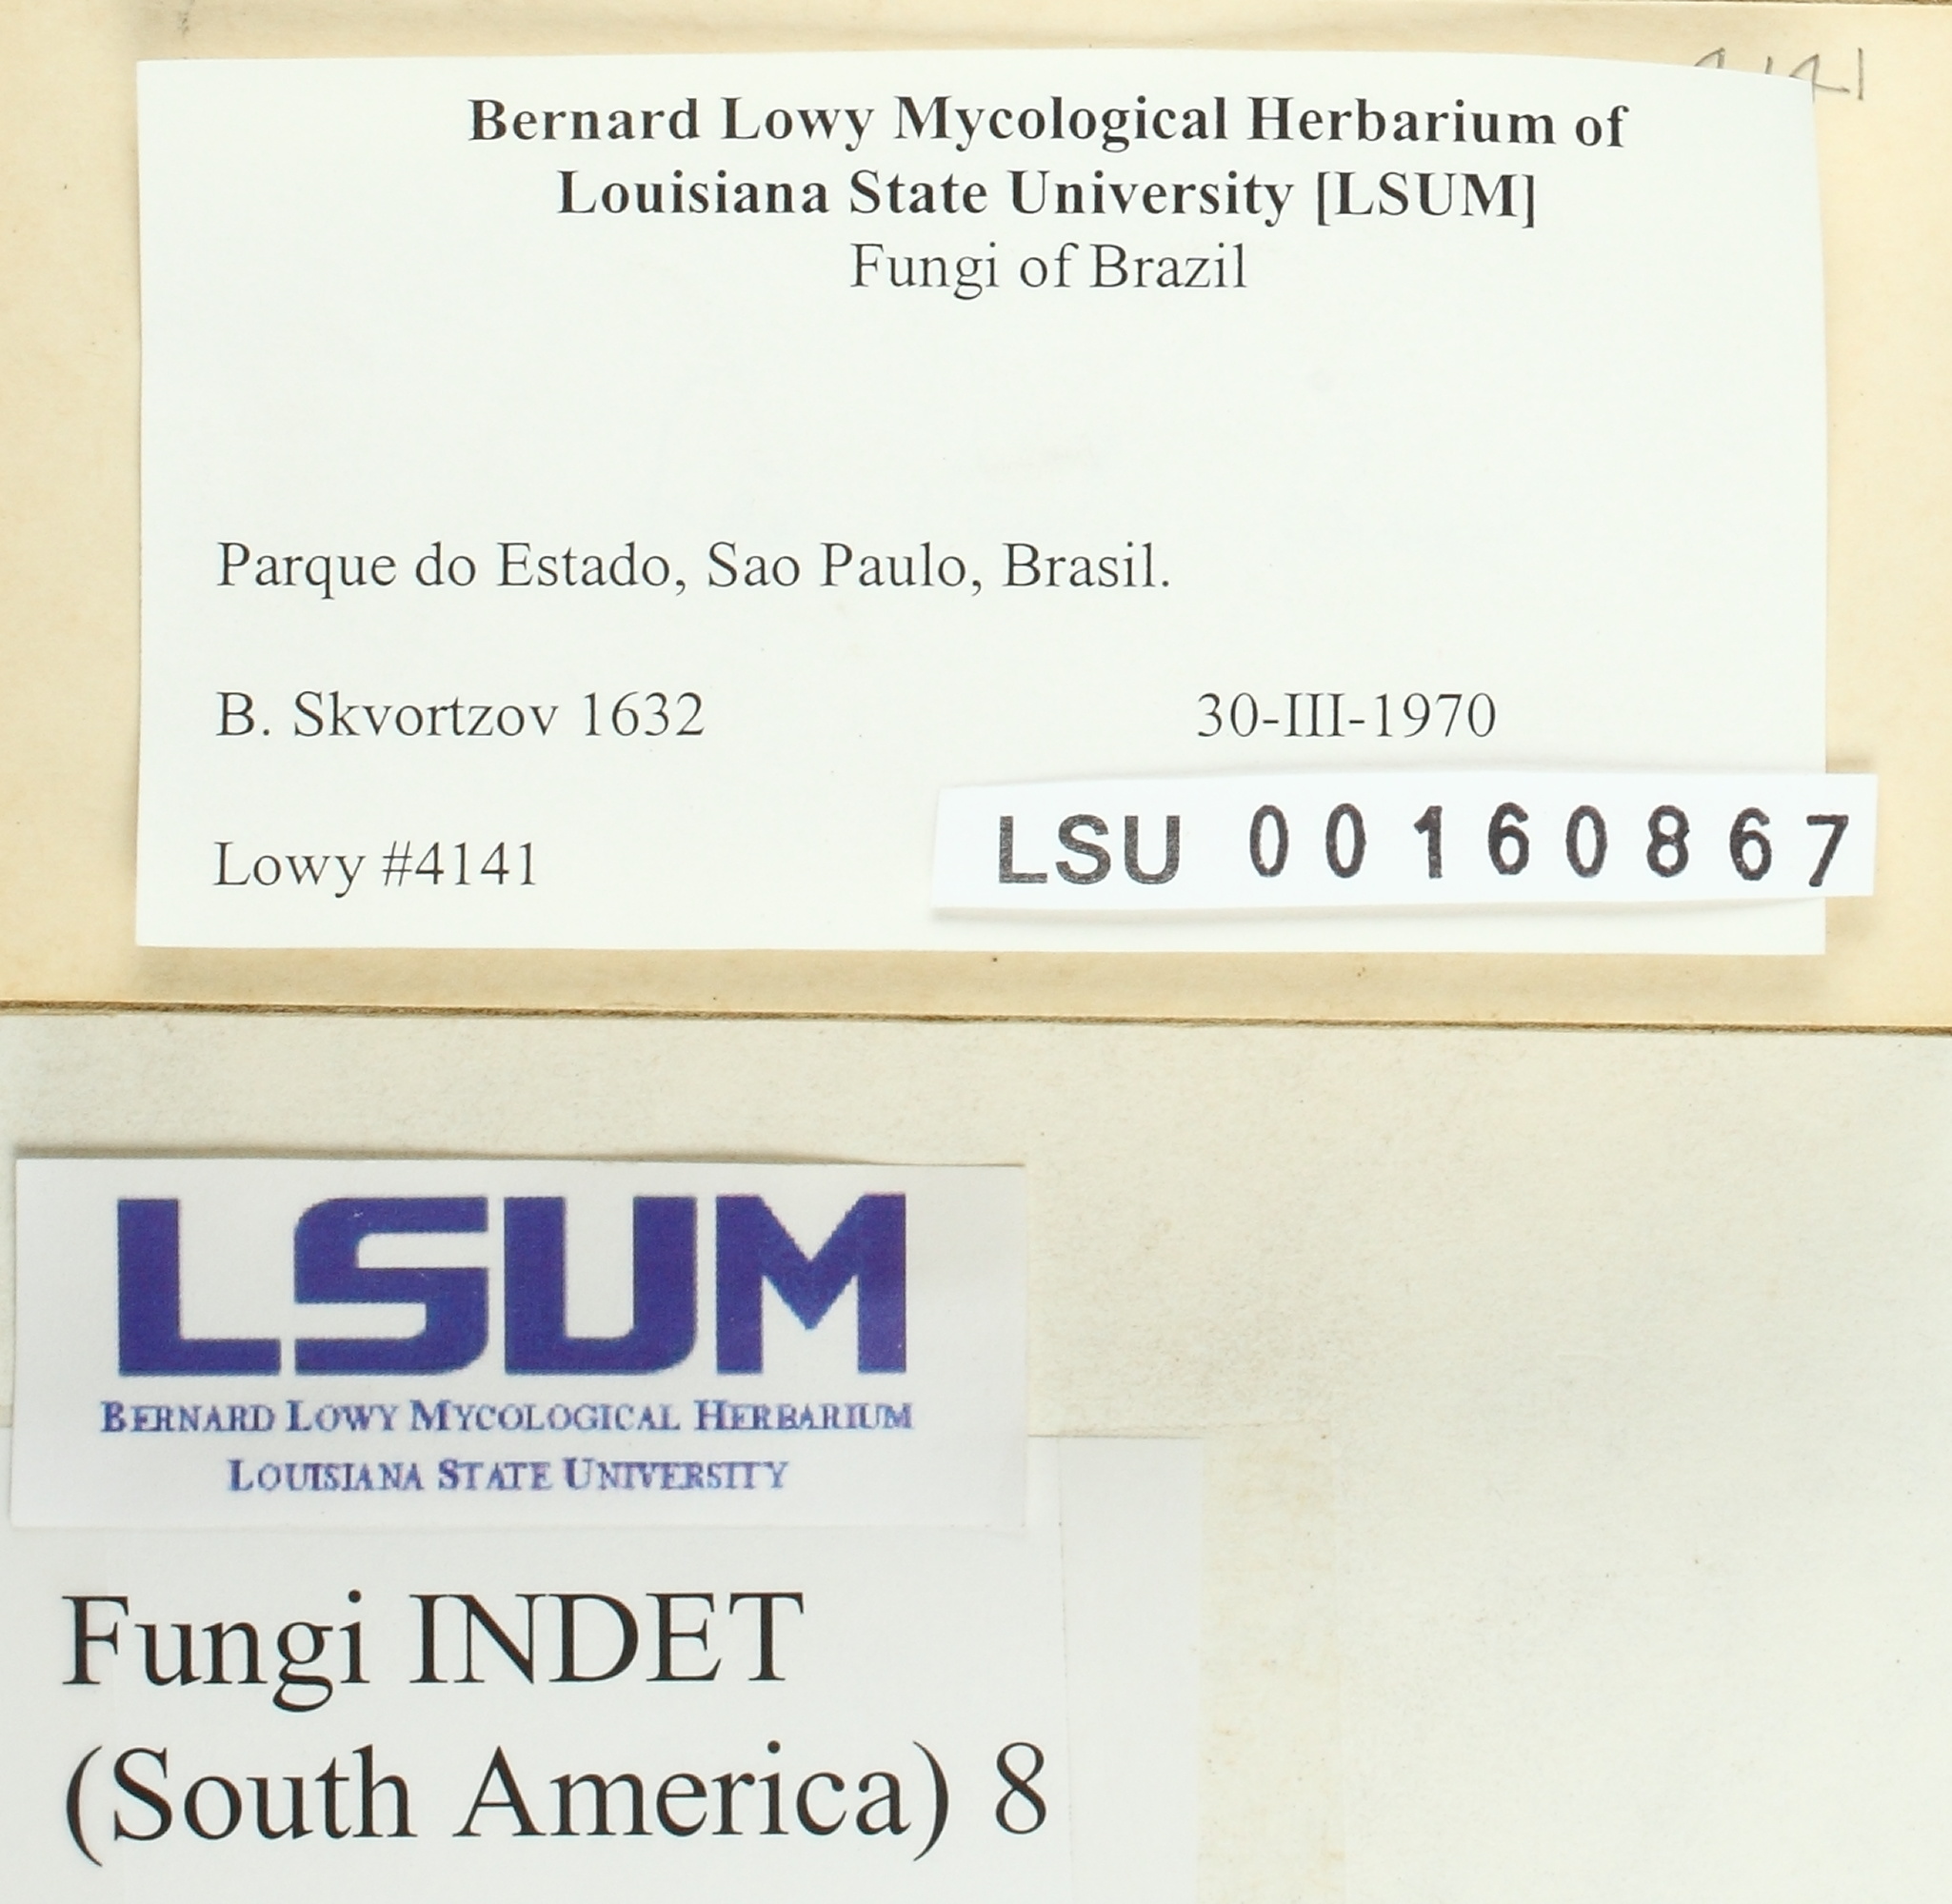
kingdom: Fungi
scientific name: Fungi
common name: Fungi
